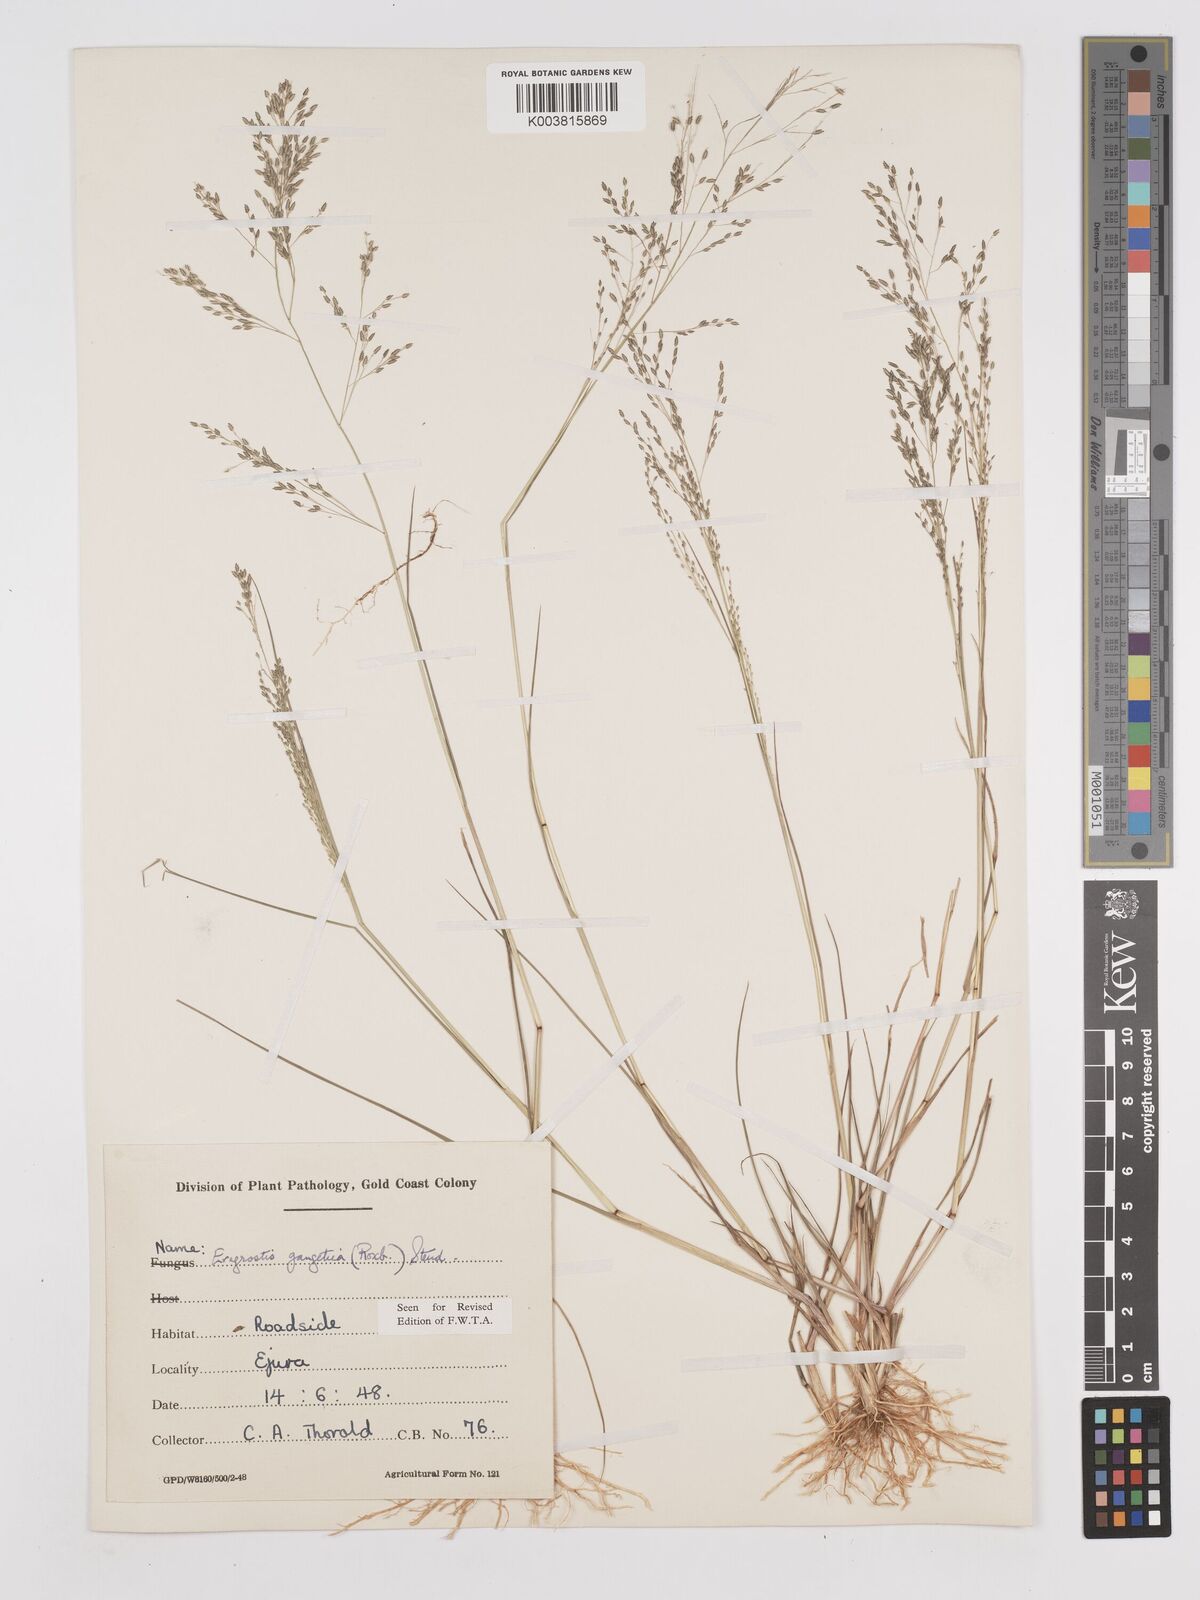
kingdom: Plantae
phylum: Tracheophyta
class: Liliopsida
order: Poales
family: Poaceae
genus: Eragrostis
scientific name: Eragrostis gangetica
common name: Slimflower lovegrass
